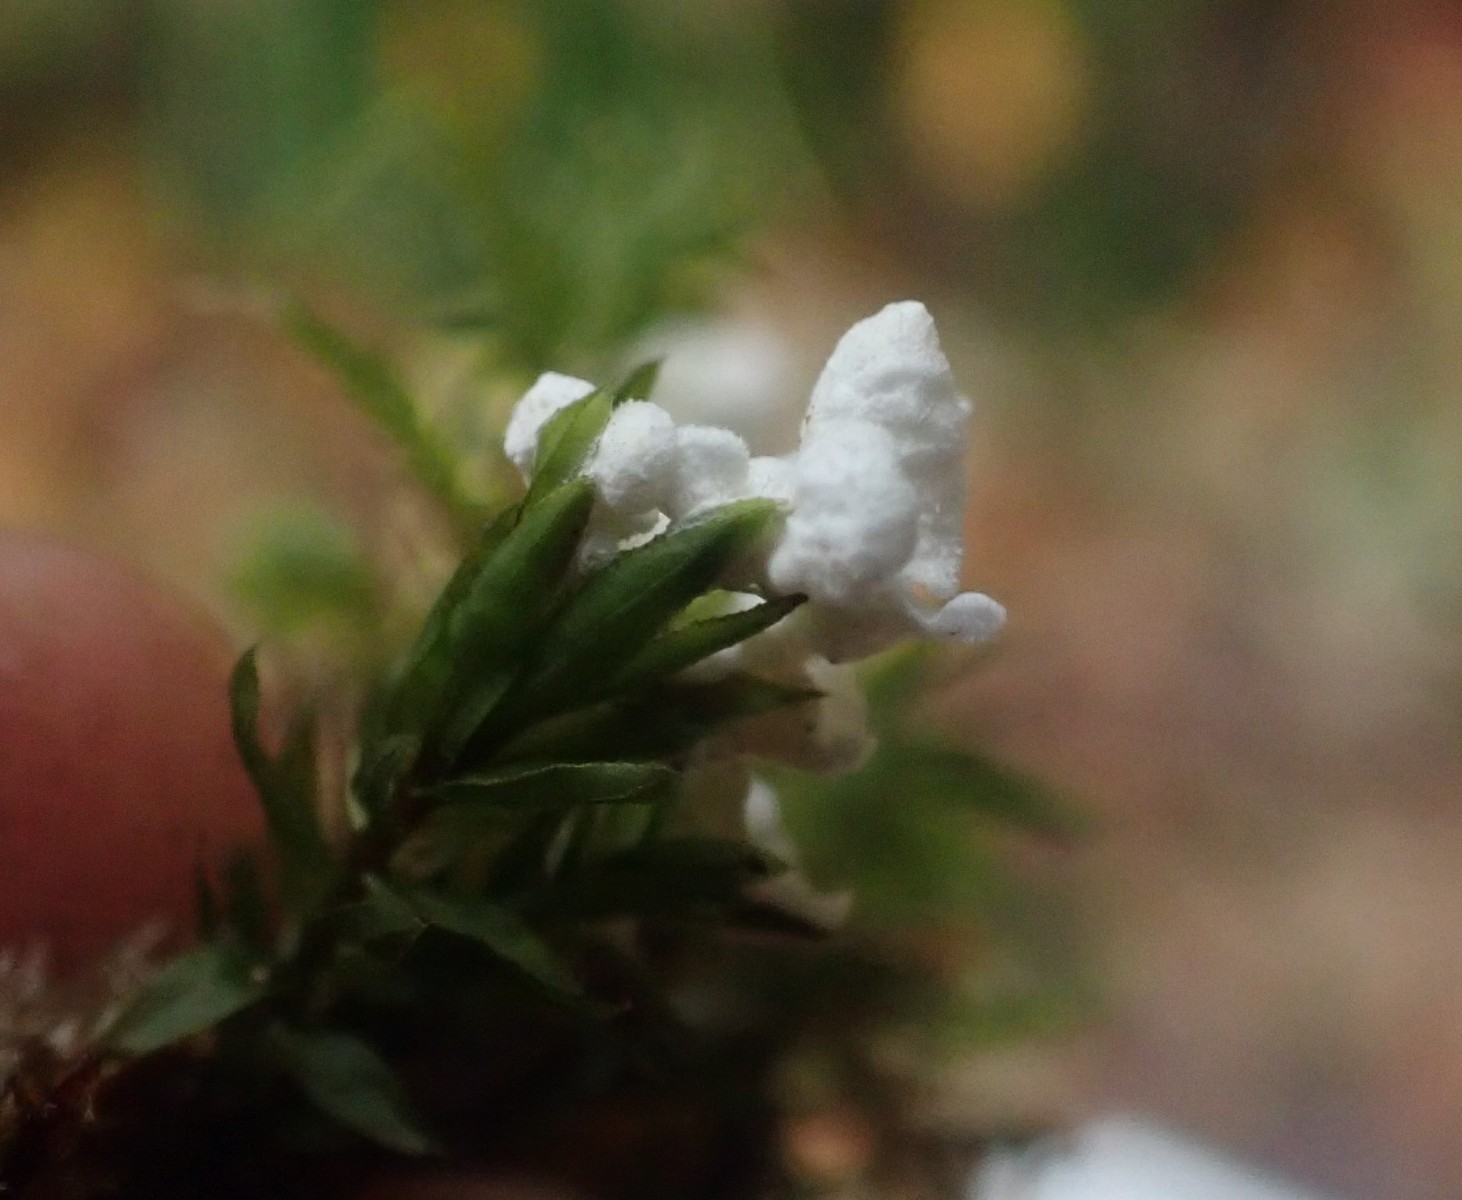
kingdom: Fungi
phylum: Basidiomycota
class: Agaricomycetes
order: Agaricales
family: Tricholomataceae
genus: Rimbachia
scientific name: Rimbachia arachnoidea
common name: Almindelig mosskål
